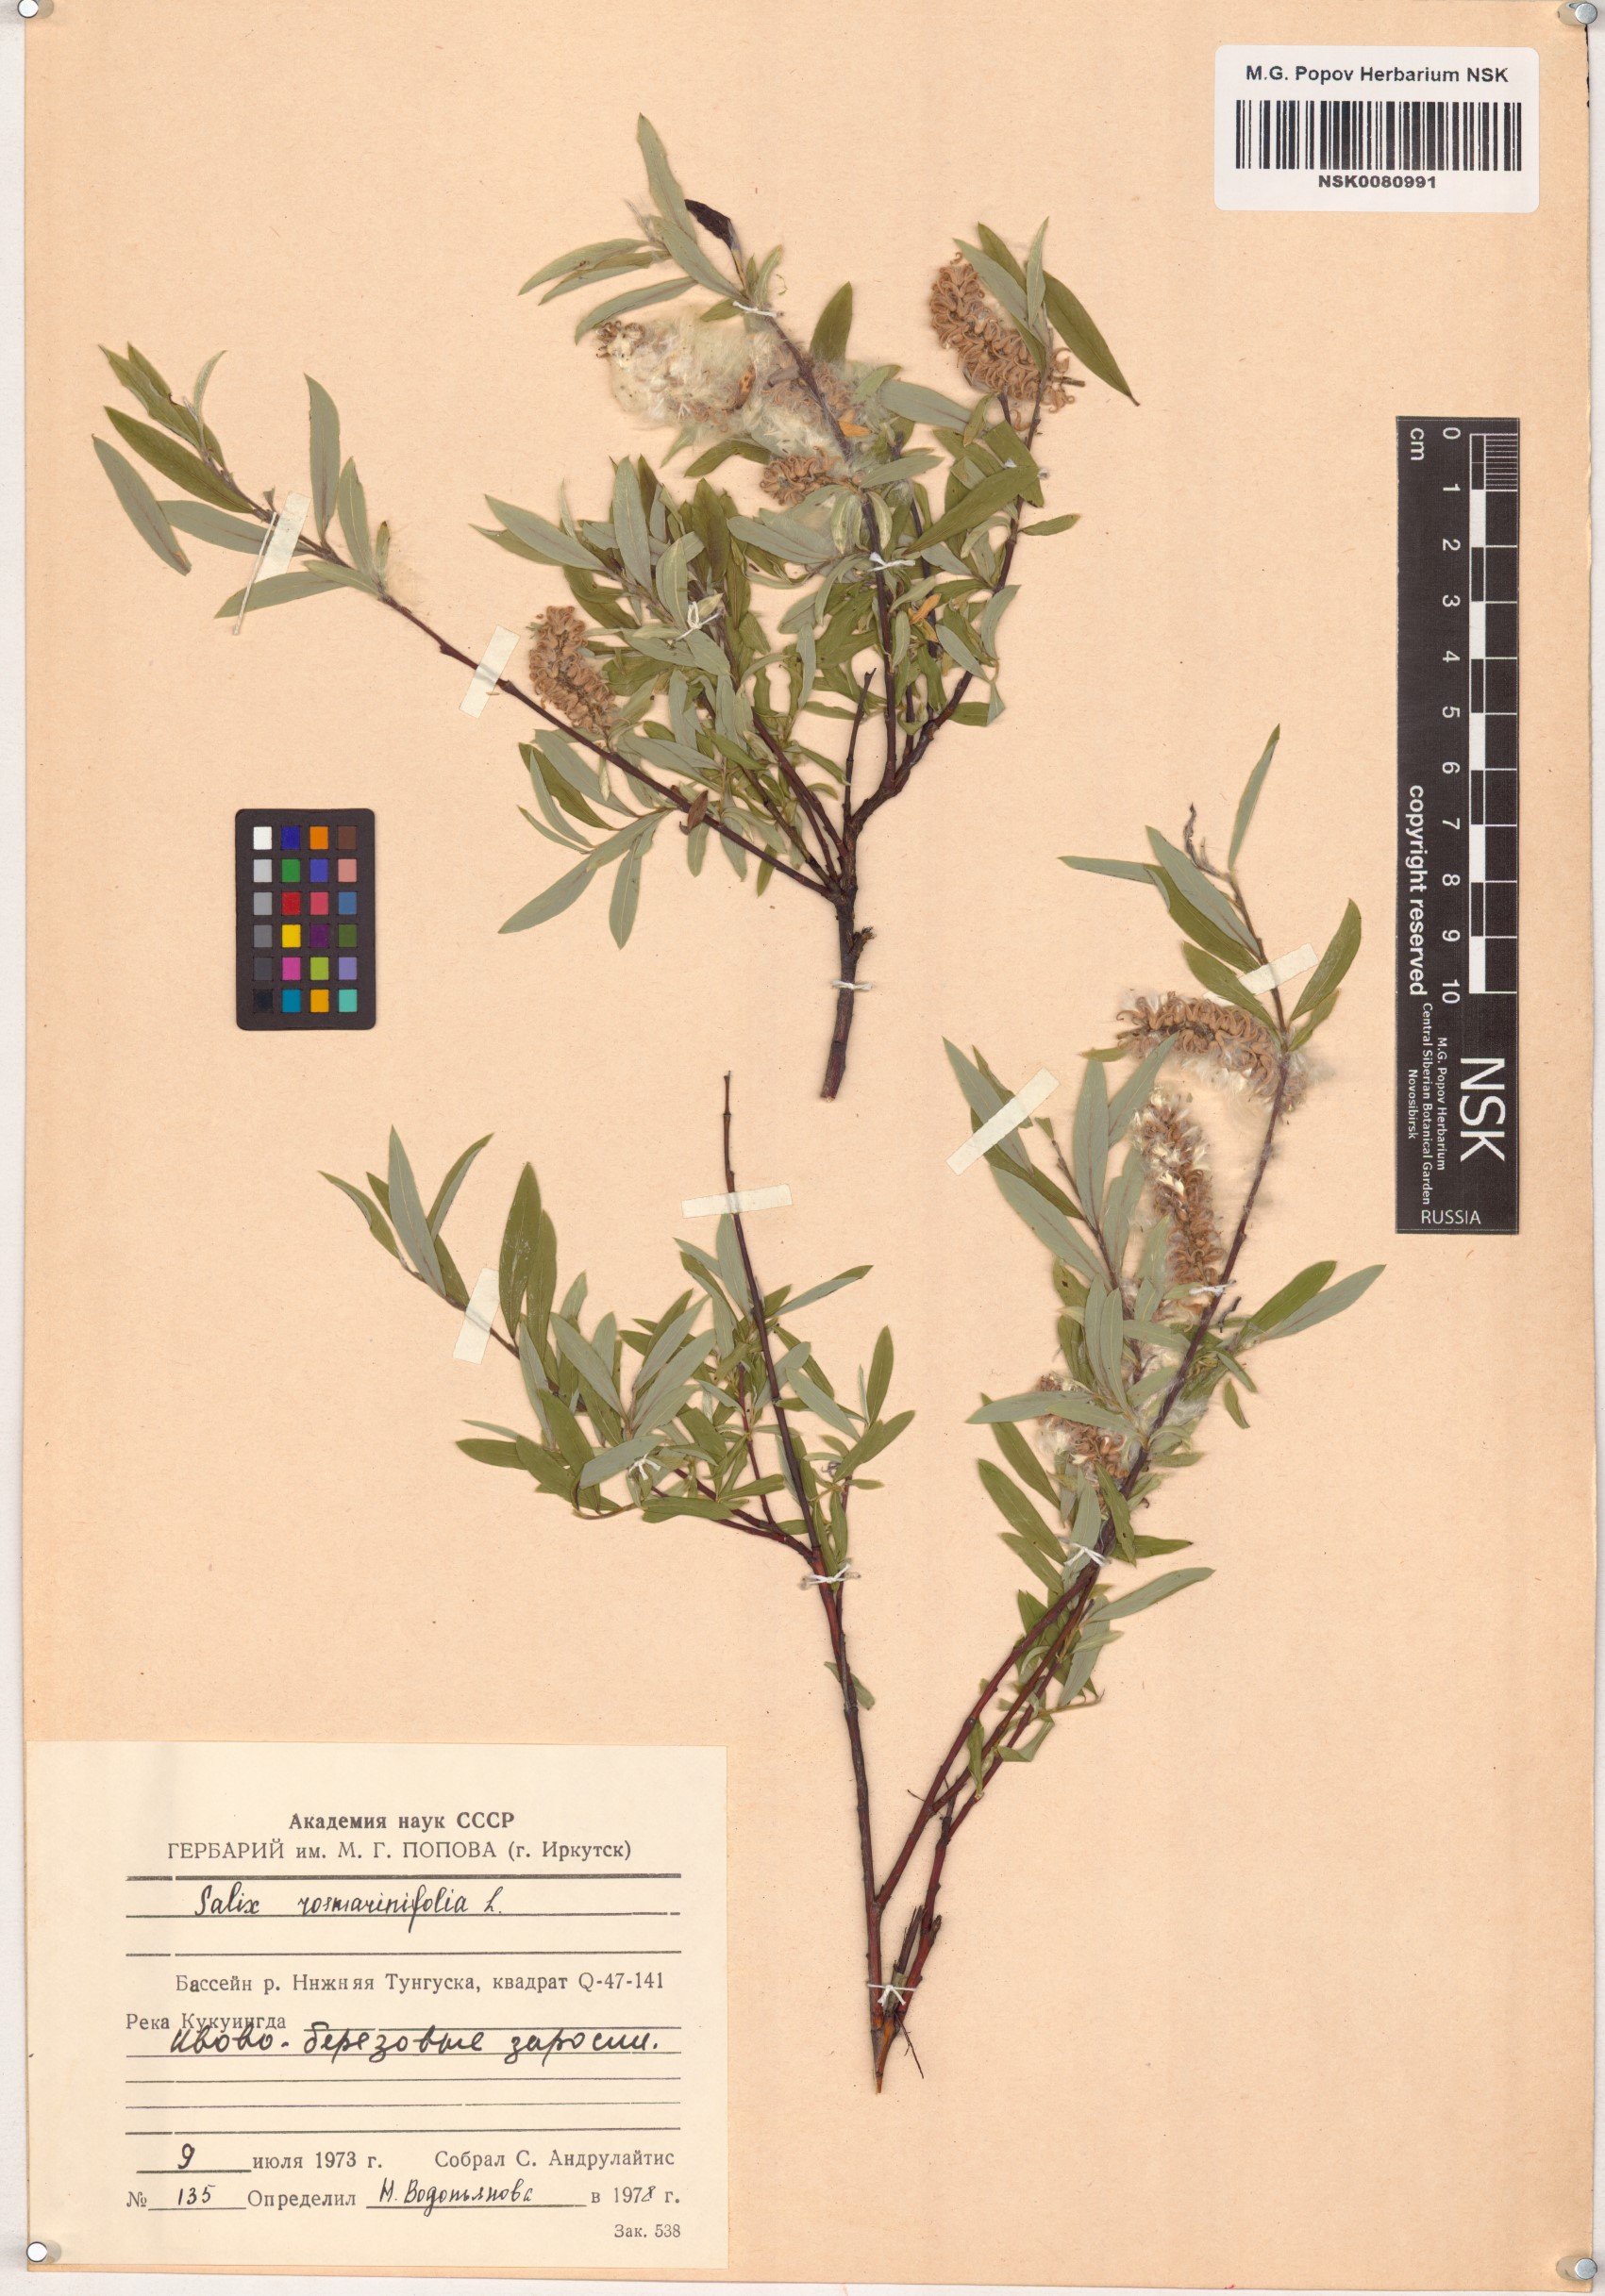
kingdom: Plantae
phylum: Tracheophyta
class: Magnoliopsida
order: Malpighiales
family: Salicaceae
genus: Salix
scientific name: Salix rosmarinifolia
